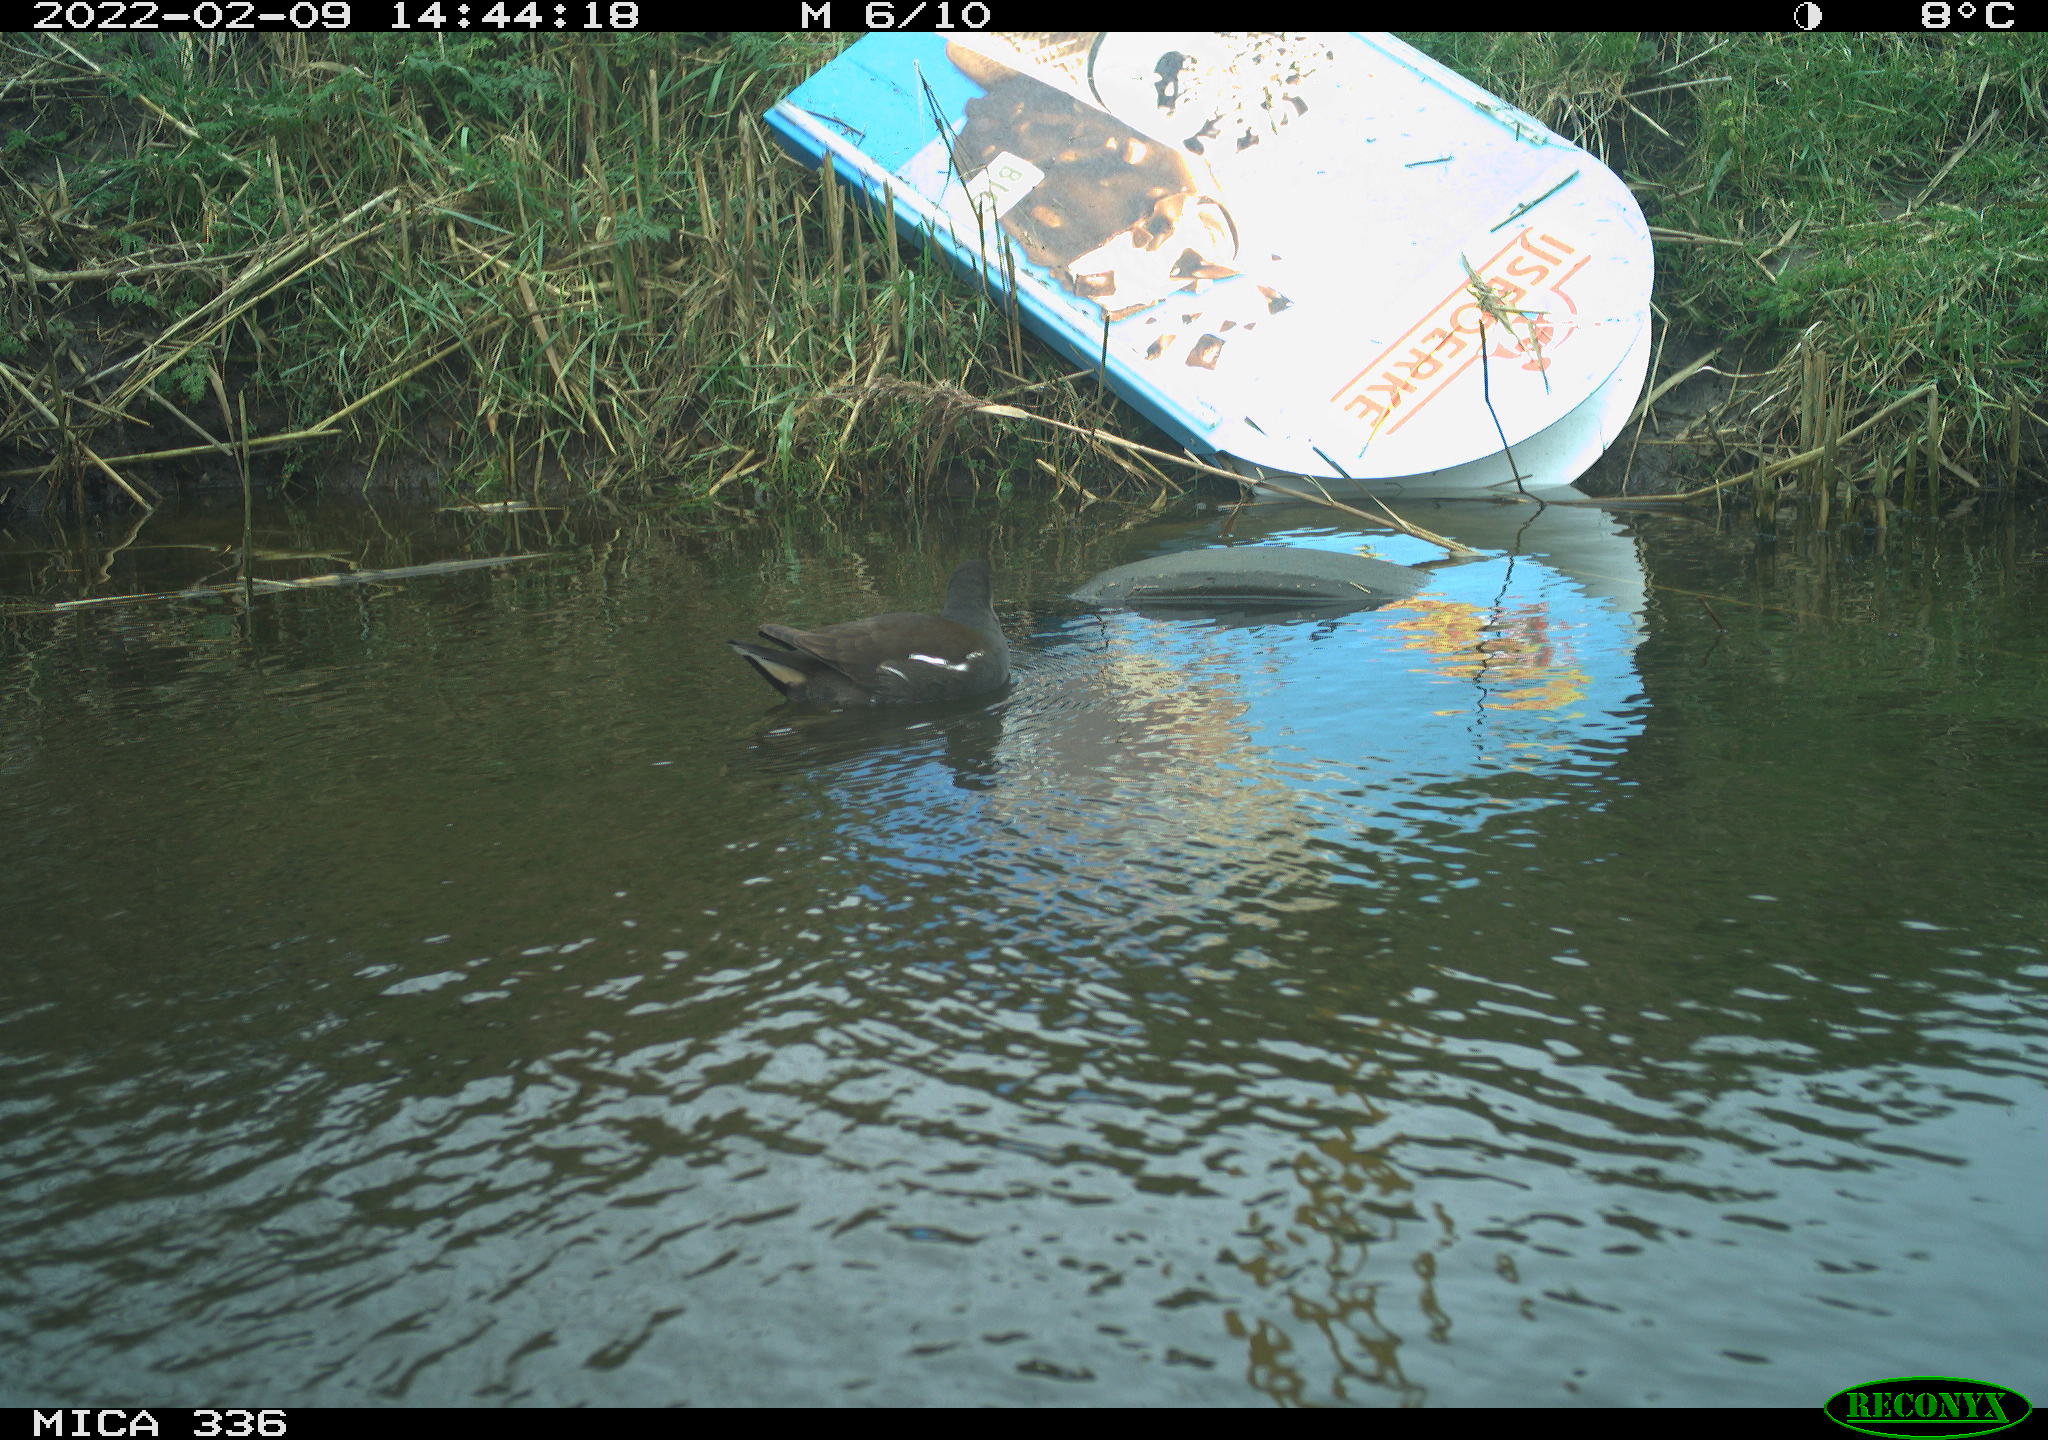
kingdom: Animalia
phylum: Chordata
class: Aves
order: Gruiformes
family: Rallidae
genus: Gallinula
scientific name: Gallinula chloropus
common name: Common moorhen
